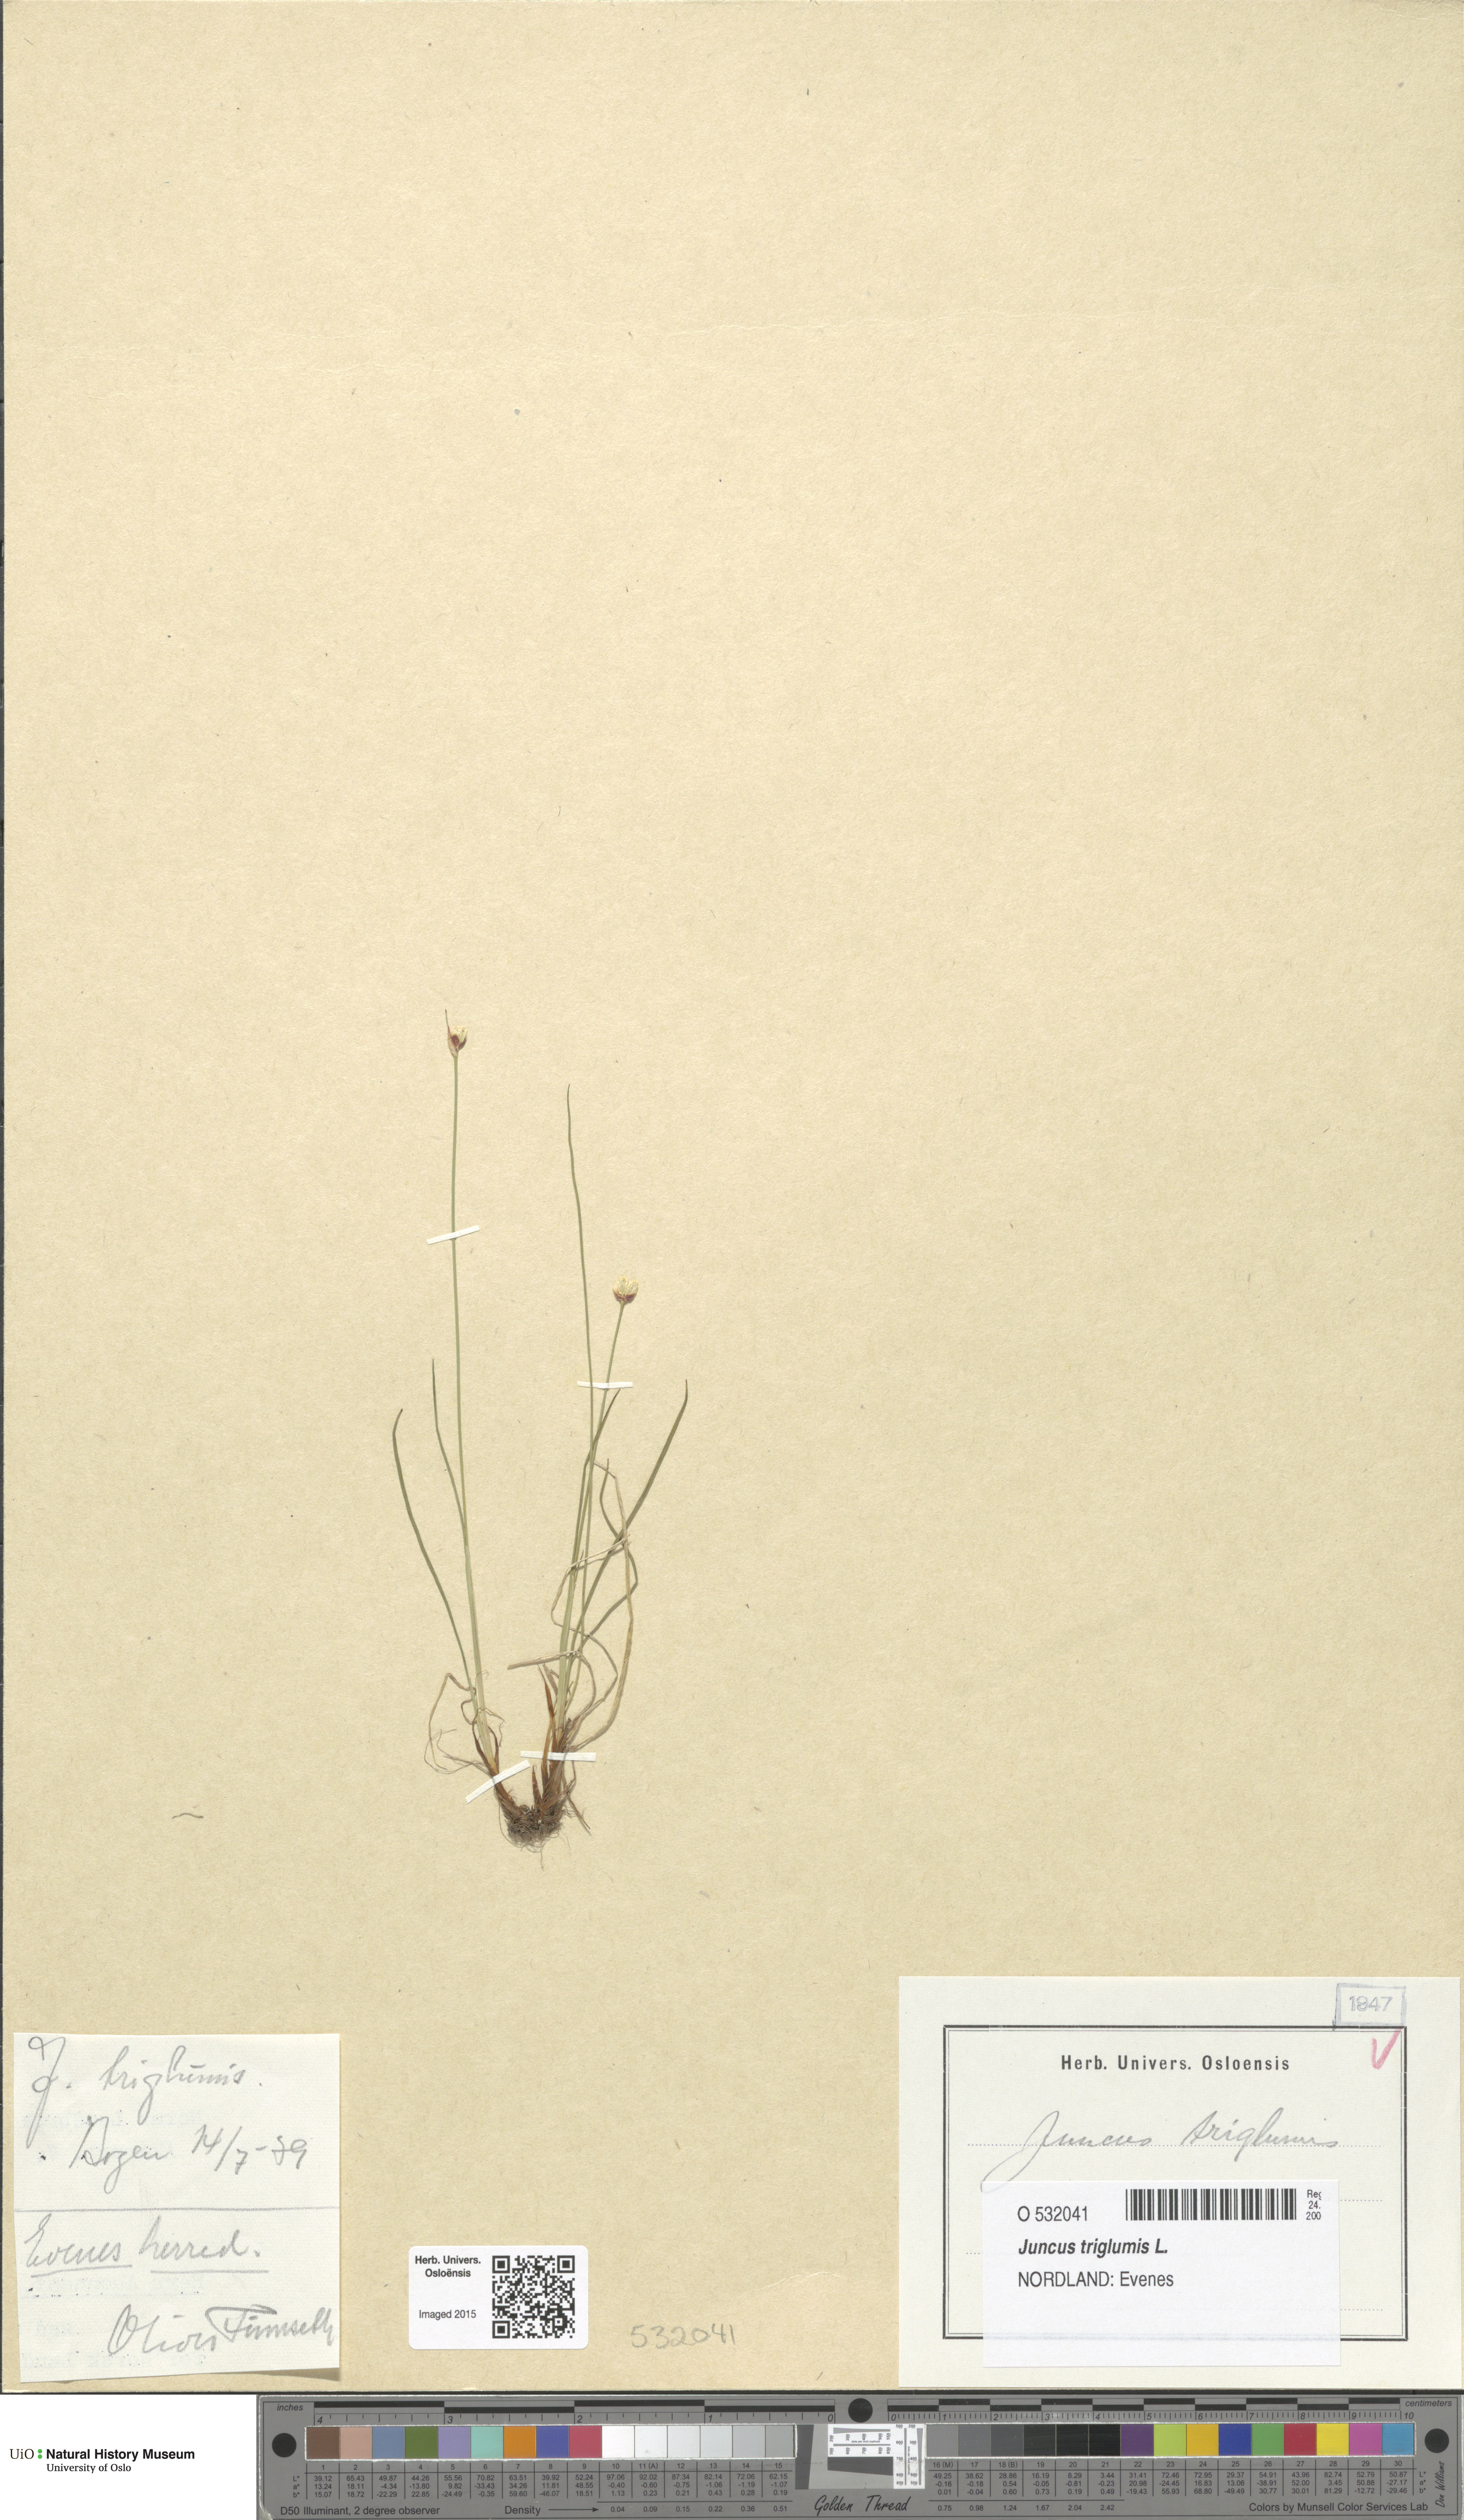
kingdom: Plantae
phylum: Tracheophyta
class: Liliopsida
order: Poales
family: Juncaceae
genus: Juncus
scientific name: Juncus triglumis
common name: Three-flowered rush
